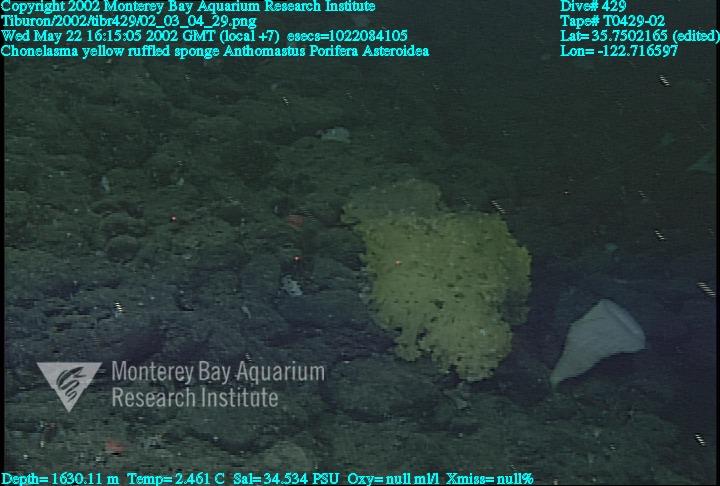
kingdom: Animalia
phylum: Porifera
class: Hexactinellida
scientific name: Hexactinellida
